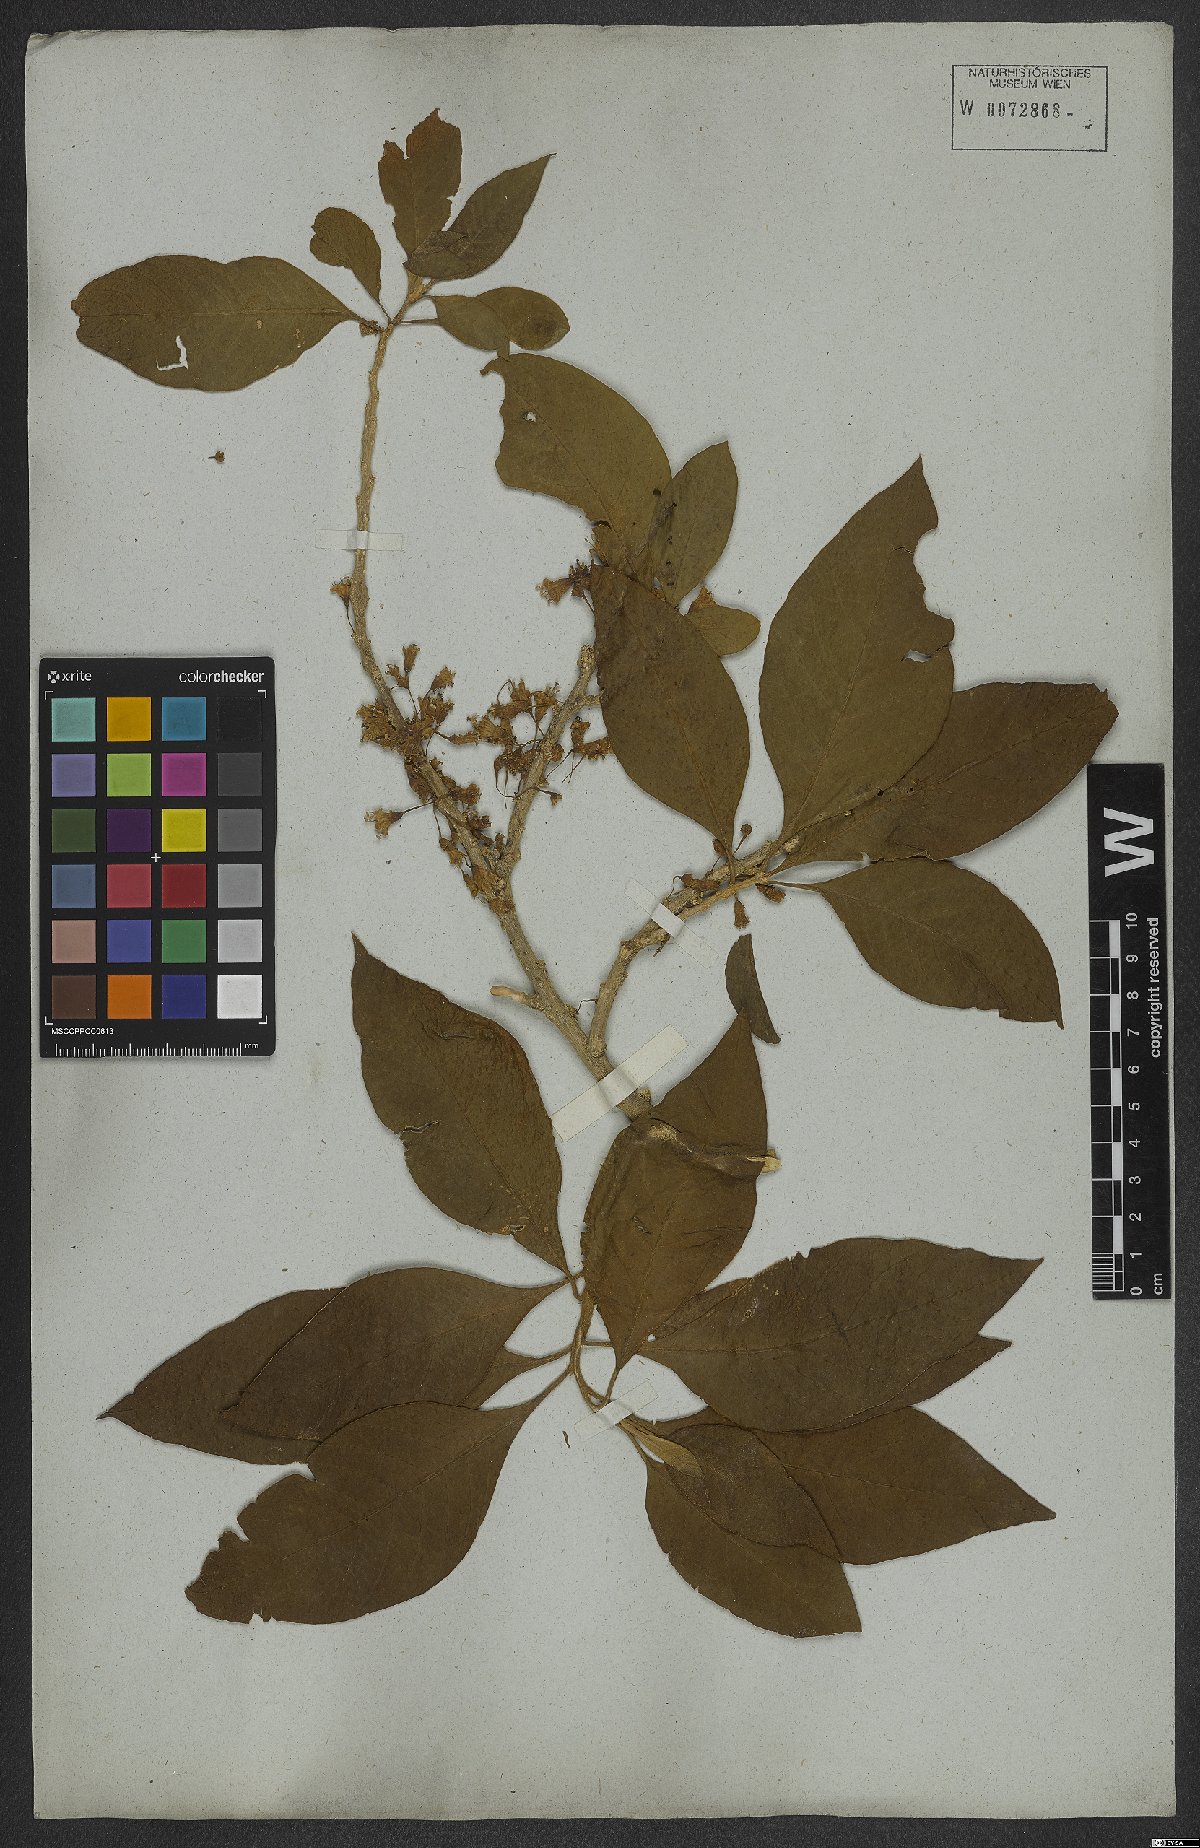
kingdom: Plantae
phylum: Tracheophyta
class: Magnoliopsida
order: Solanales
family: Solanaceae
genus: Iochroma
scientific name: Iochroma arborescens
